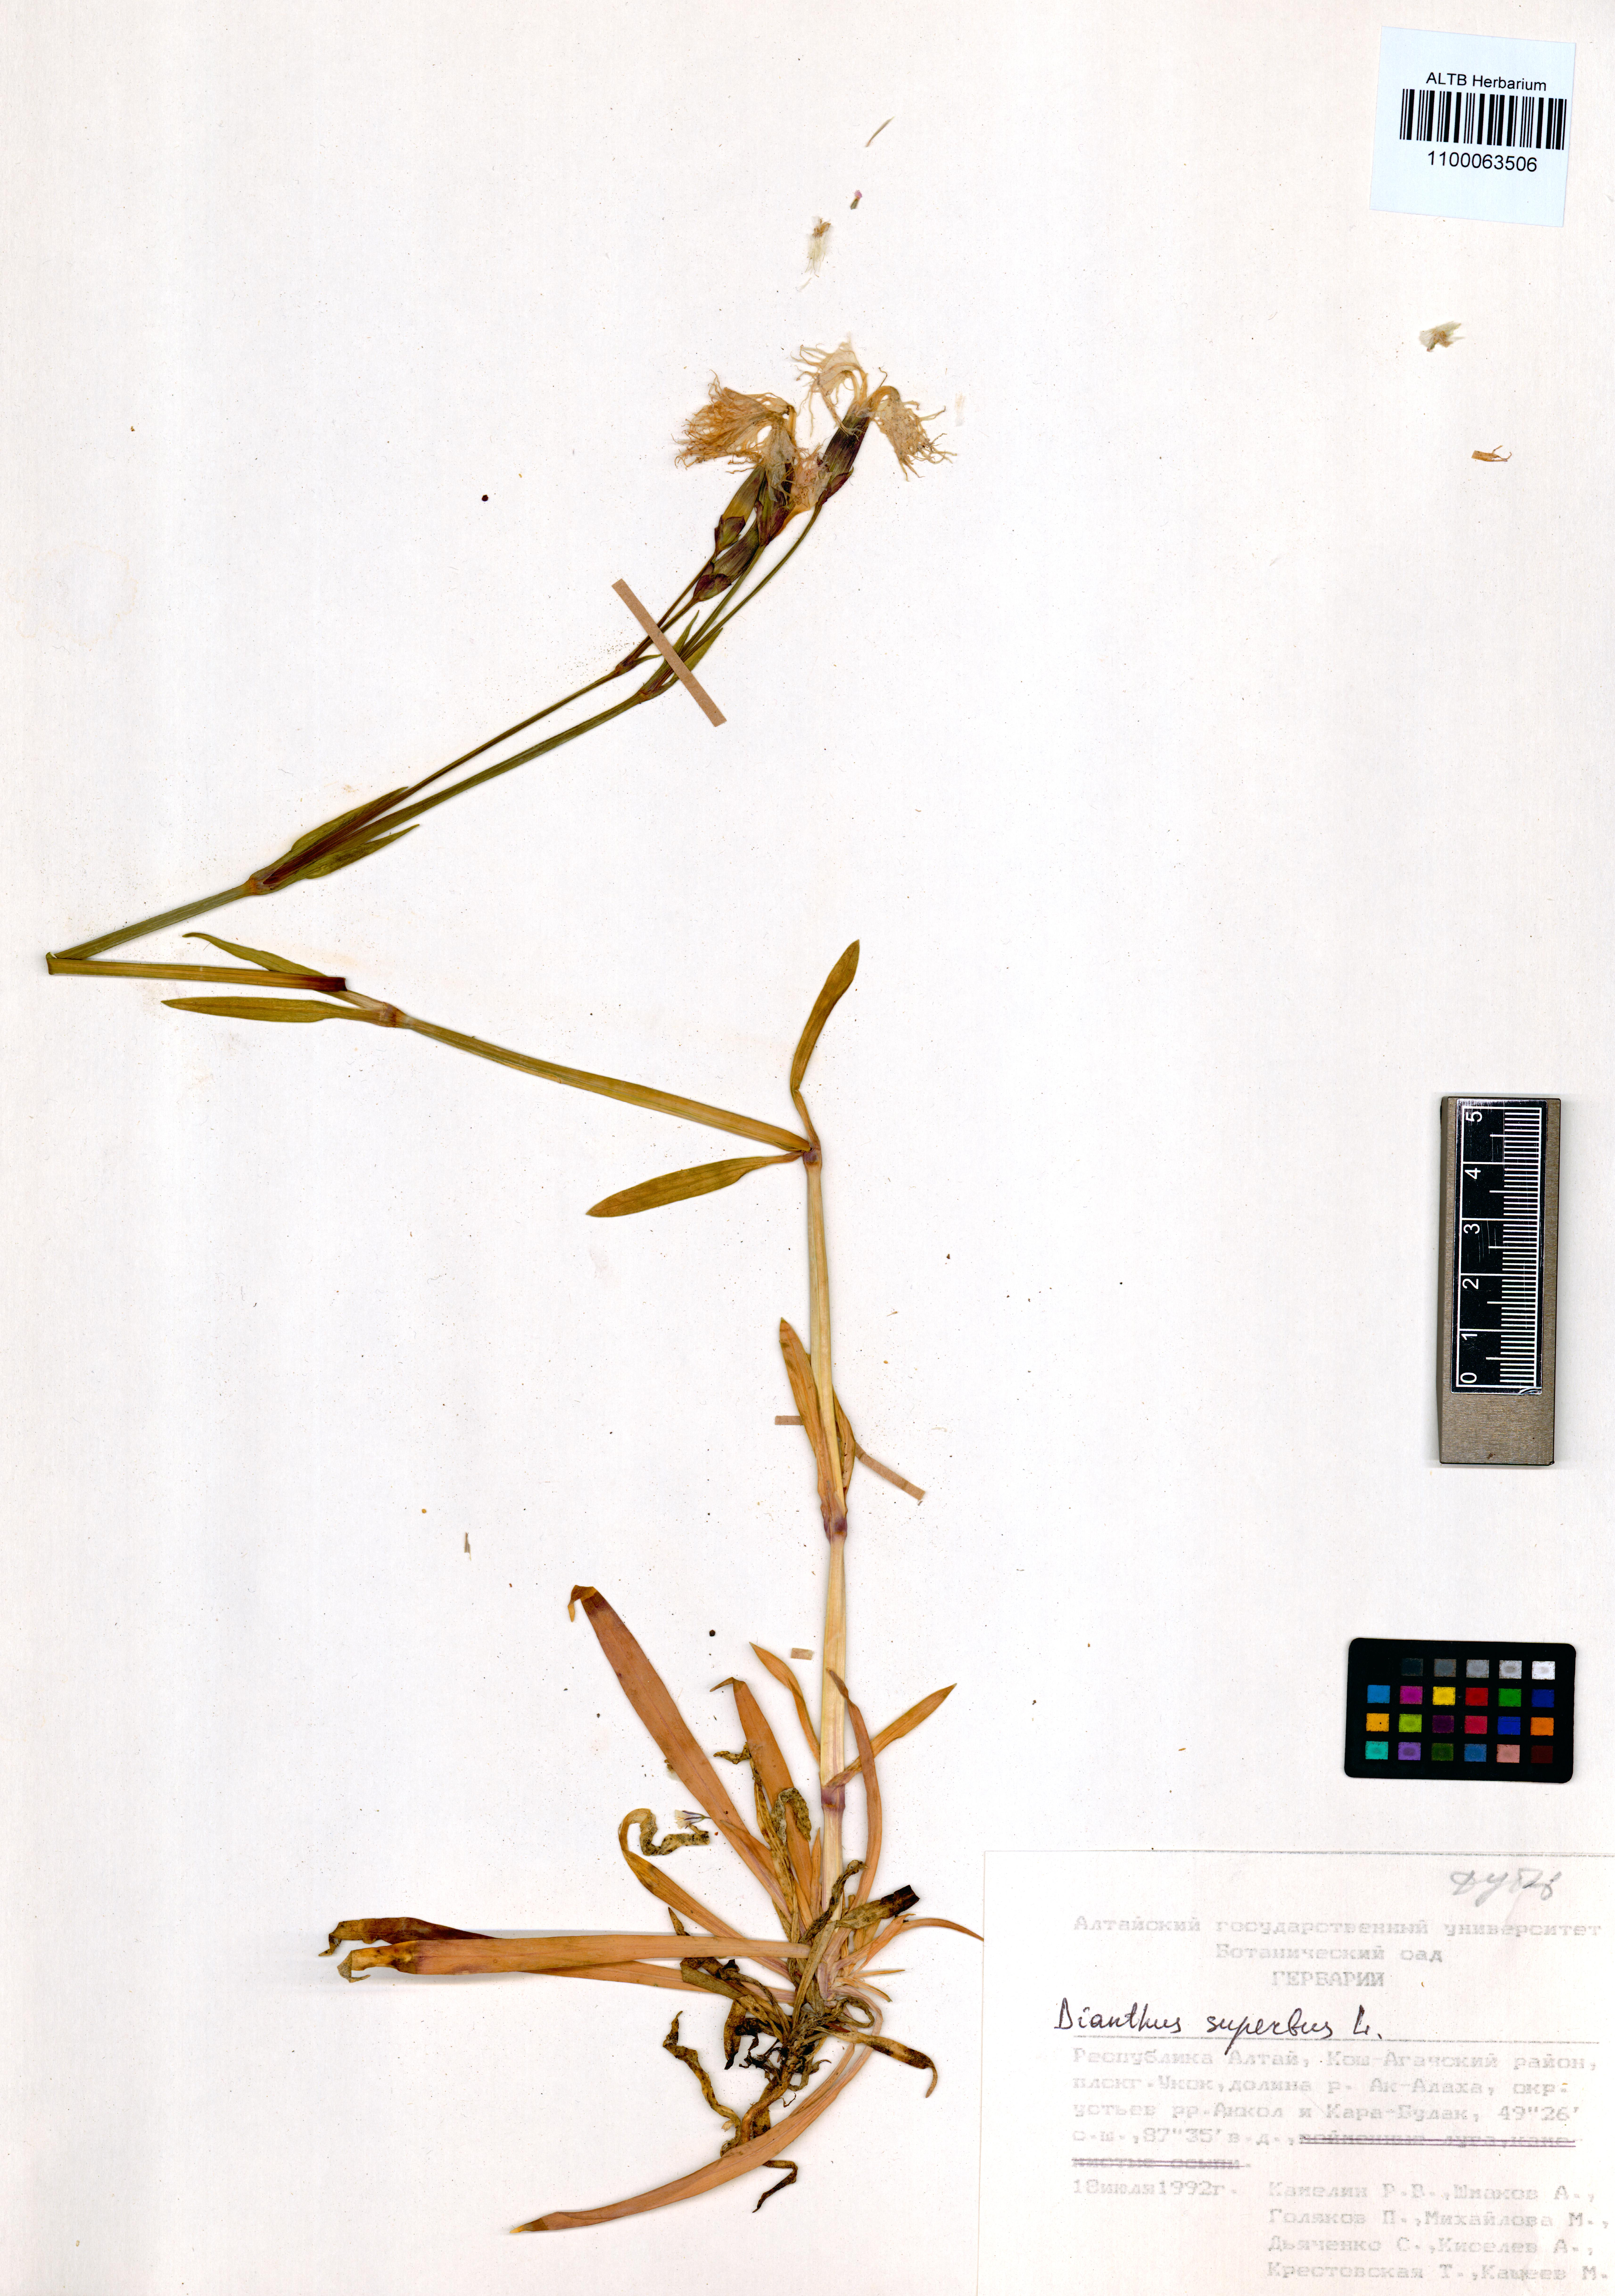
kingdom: Plantae
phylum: Tracheophyta
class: Magnoliopsida
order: Caryophyllales
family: Caryophyllaceae
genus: Dianthus
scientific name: Dianthus superbus
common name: Fringed pink
